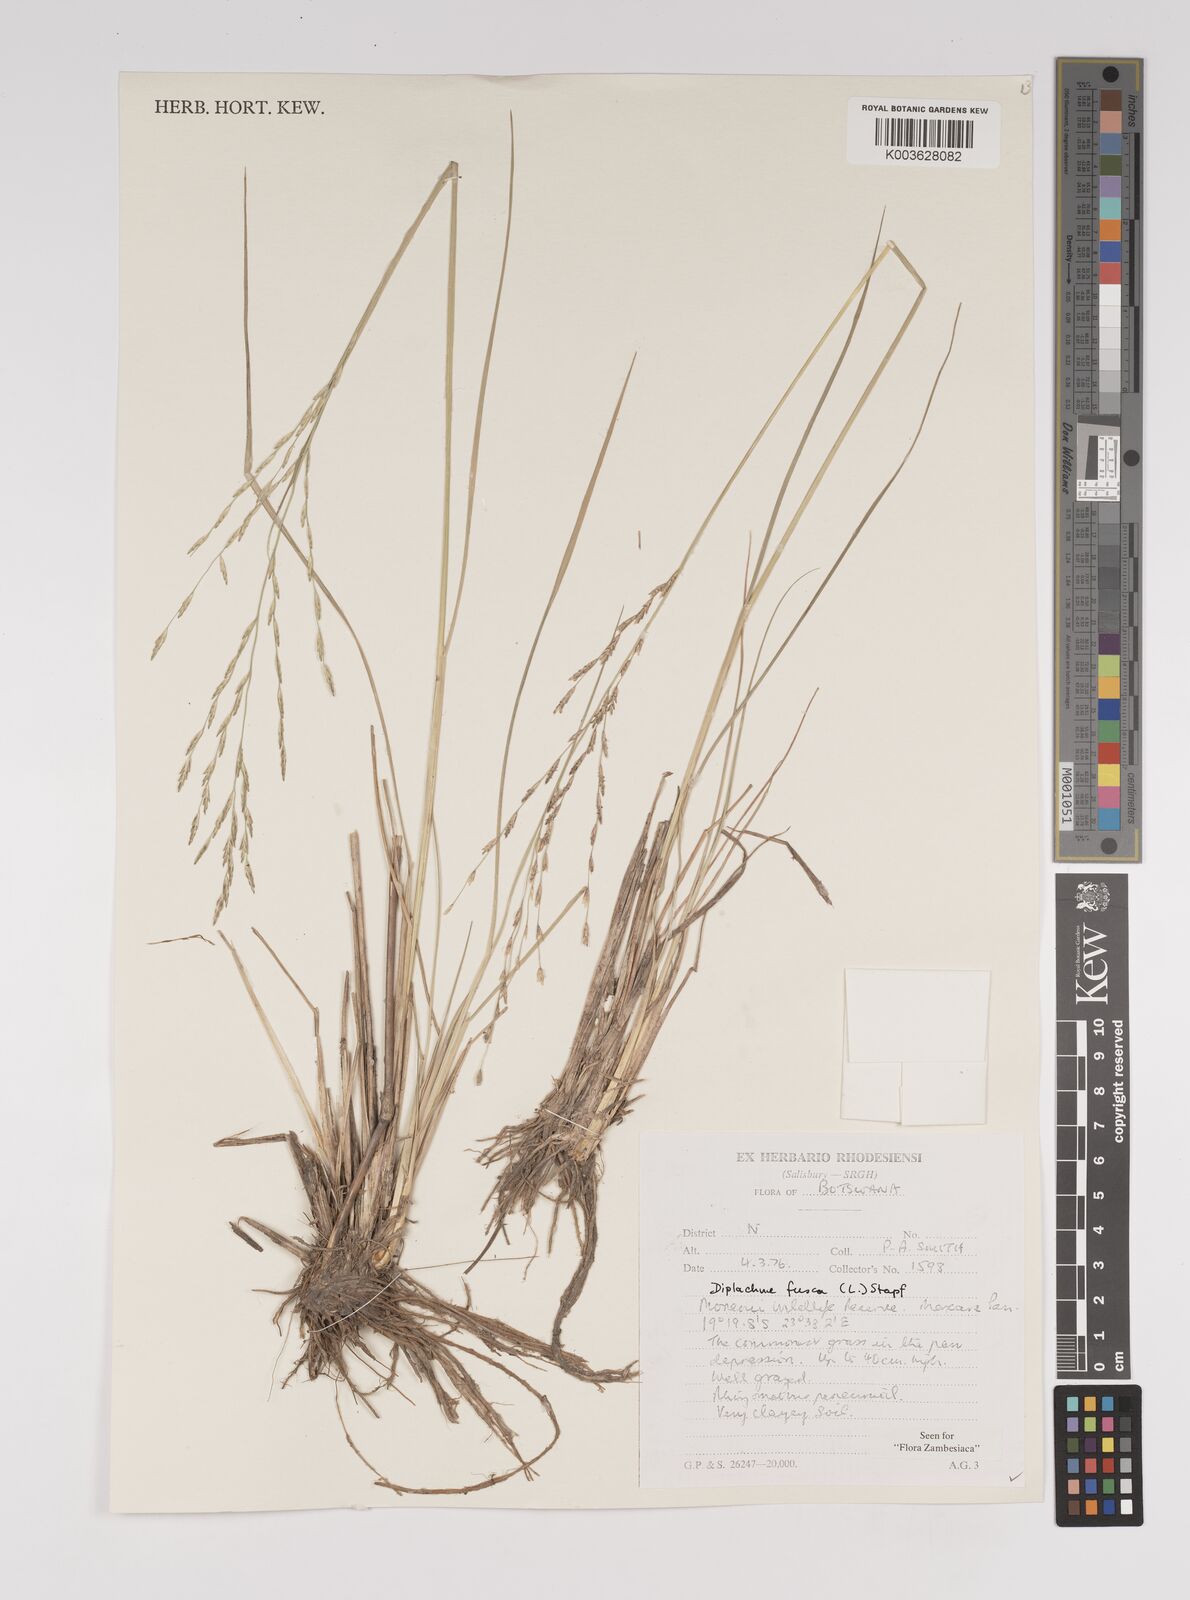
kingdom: Plantae
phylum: Tracheophyta
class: Liliopsida
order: Poales
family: Poaceae
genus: Diplachne
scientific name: Diplachne fusca
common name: Brown beetle grass
